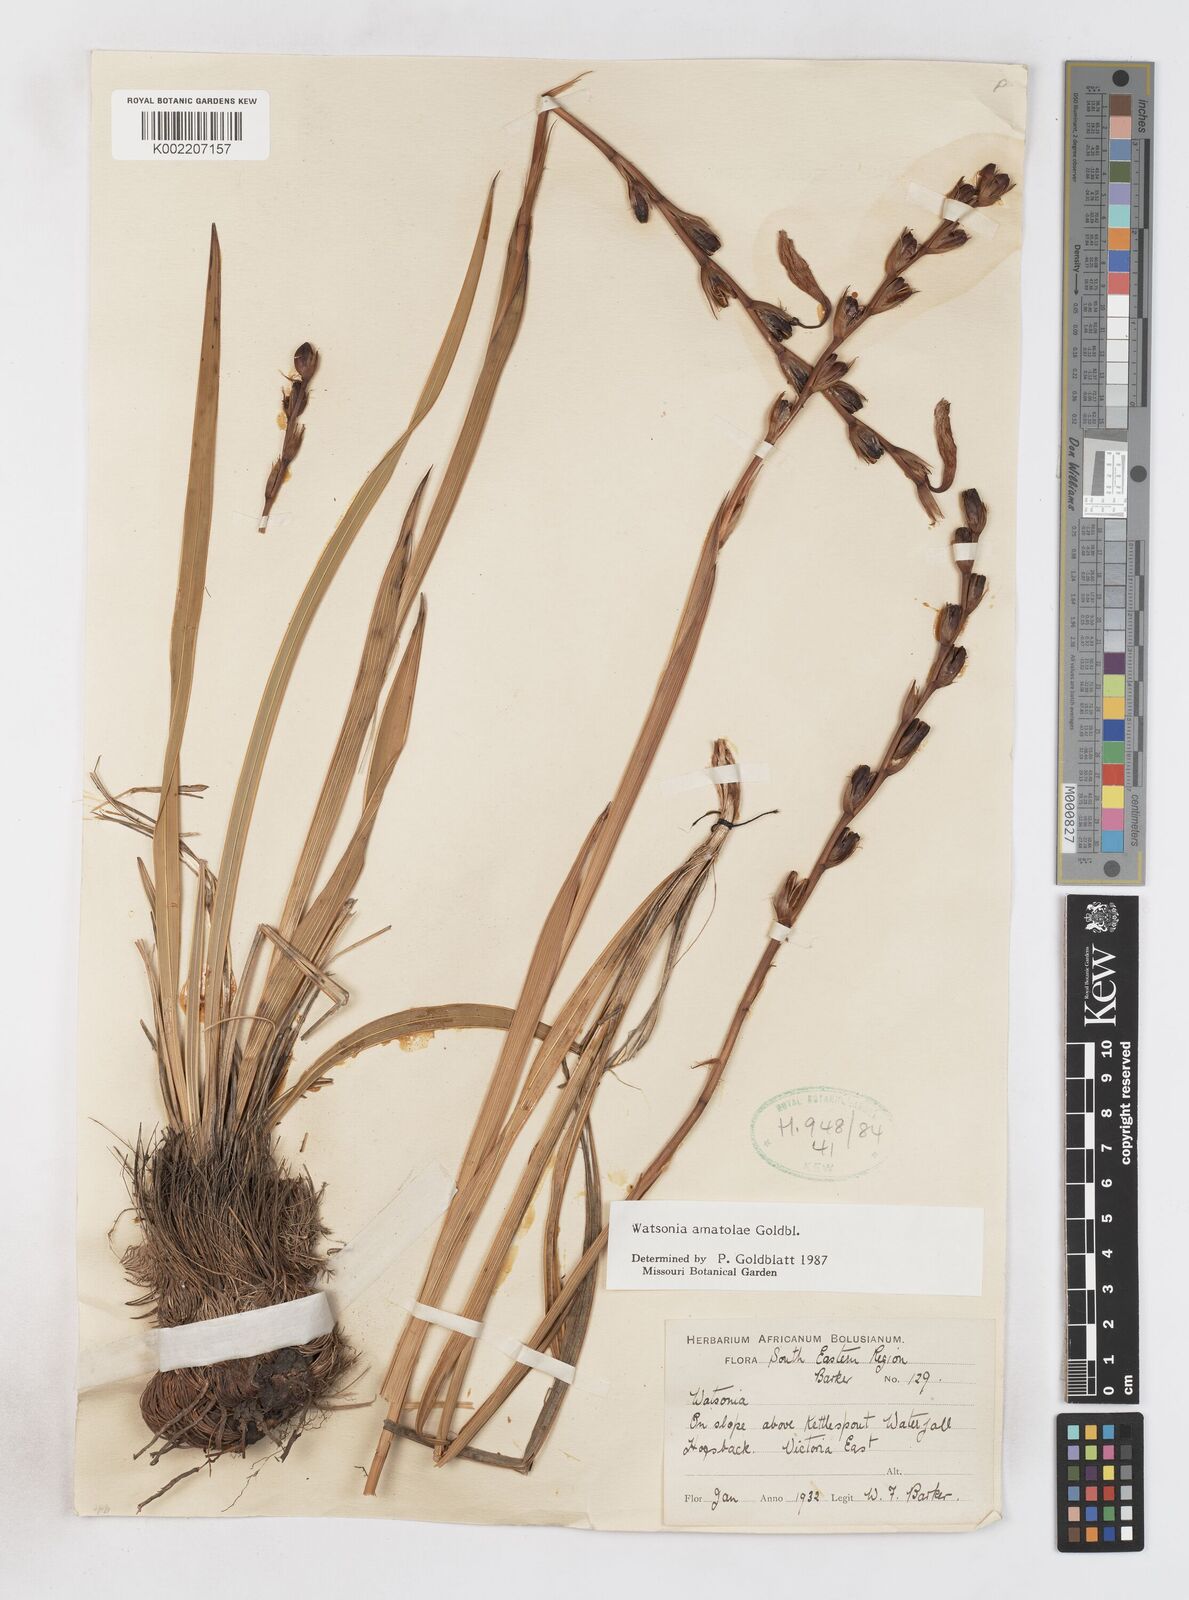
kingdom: Plantae
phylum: Tracheophyta
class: Liliopsida
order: Asparagales
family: Iridaceae
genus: Watsonia
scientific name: Watsonia amatolae
